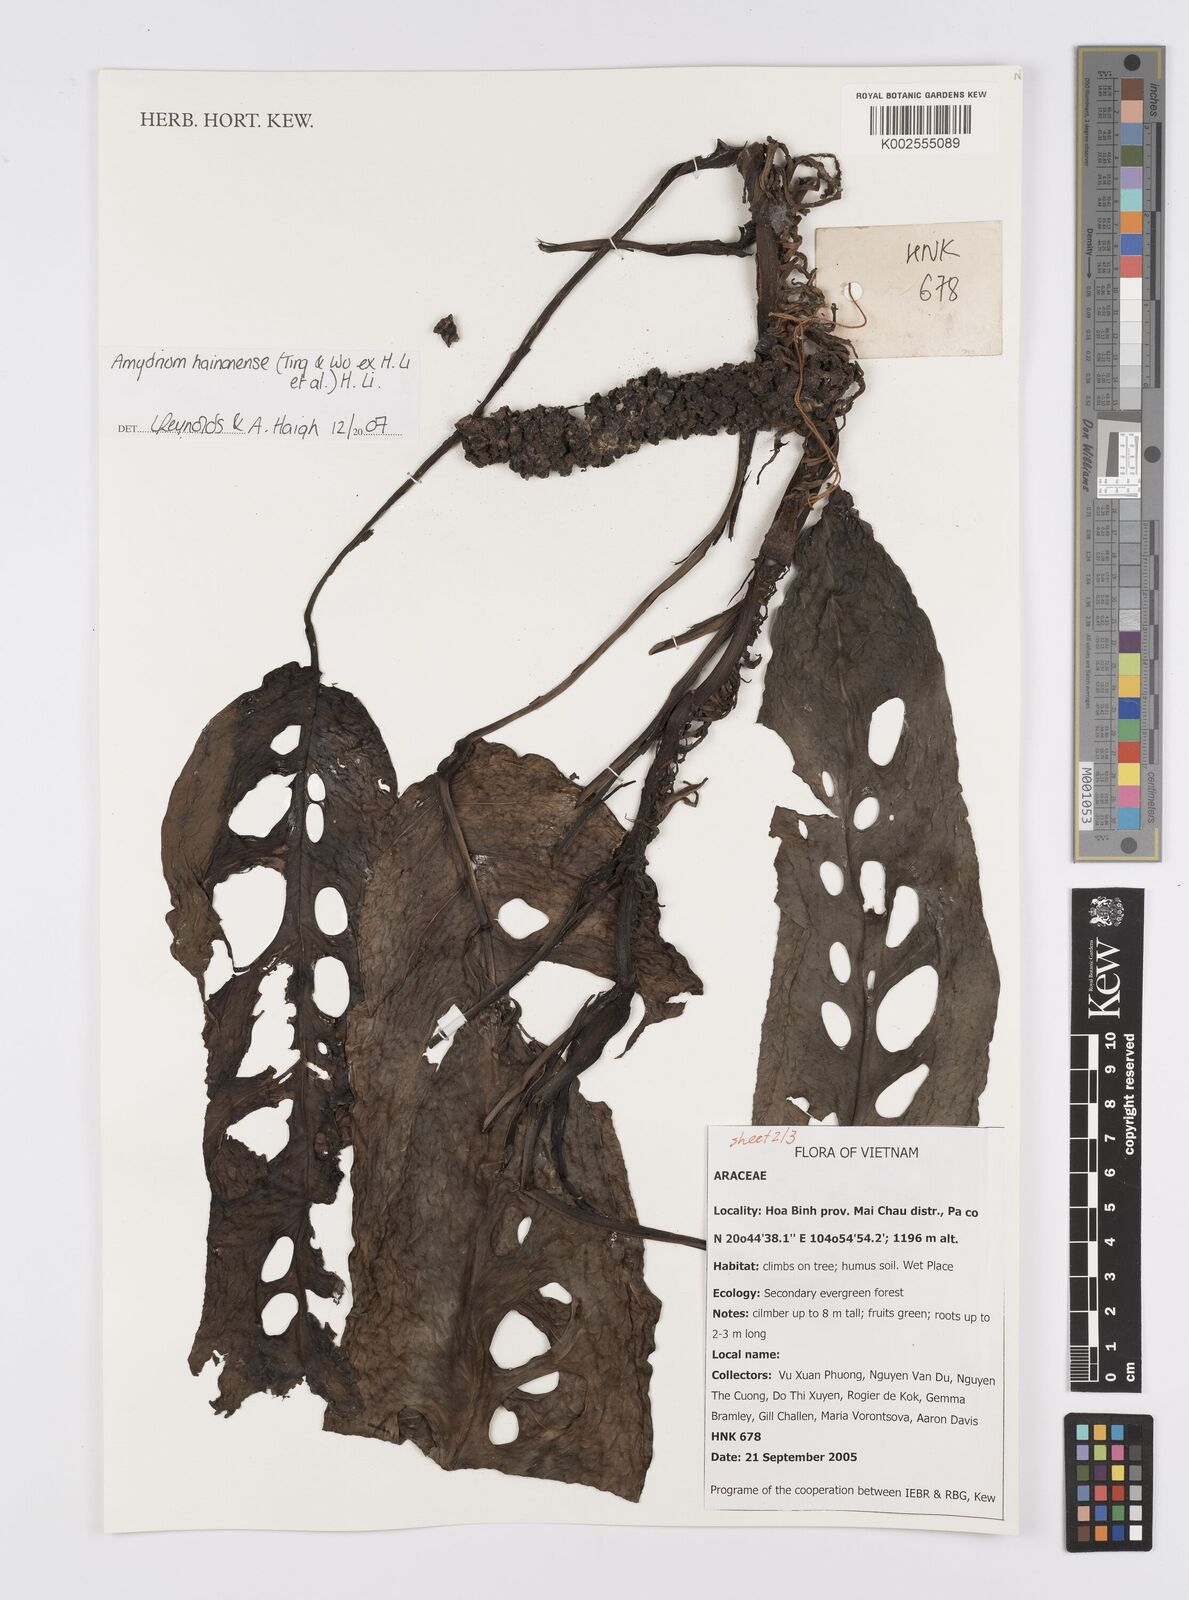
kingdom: Plantae
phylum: Tracheophyta
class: Liliopsida
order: Alismatales
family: Araceae
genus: Amydrium
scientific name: Amydrium hainanense
